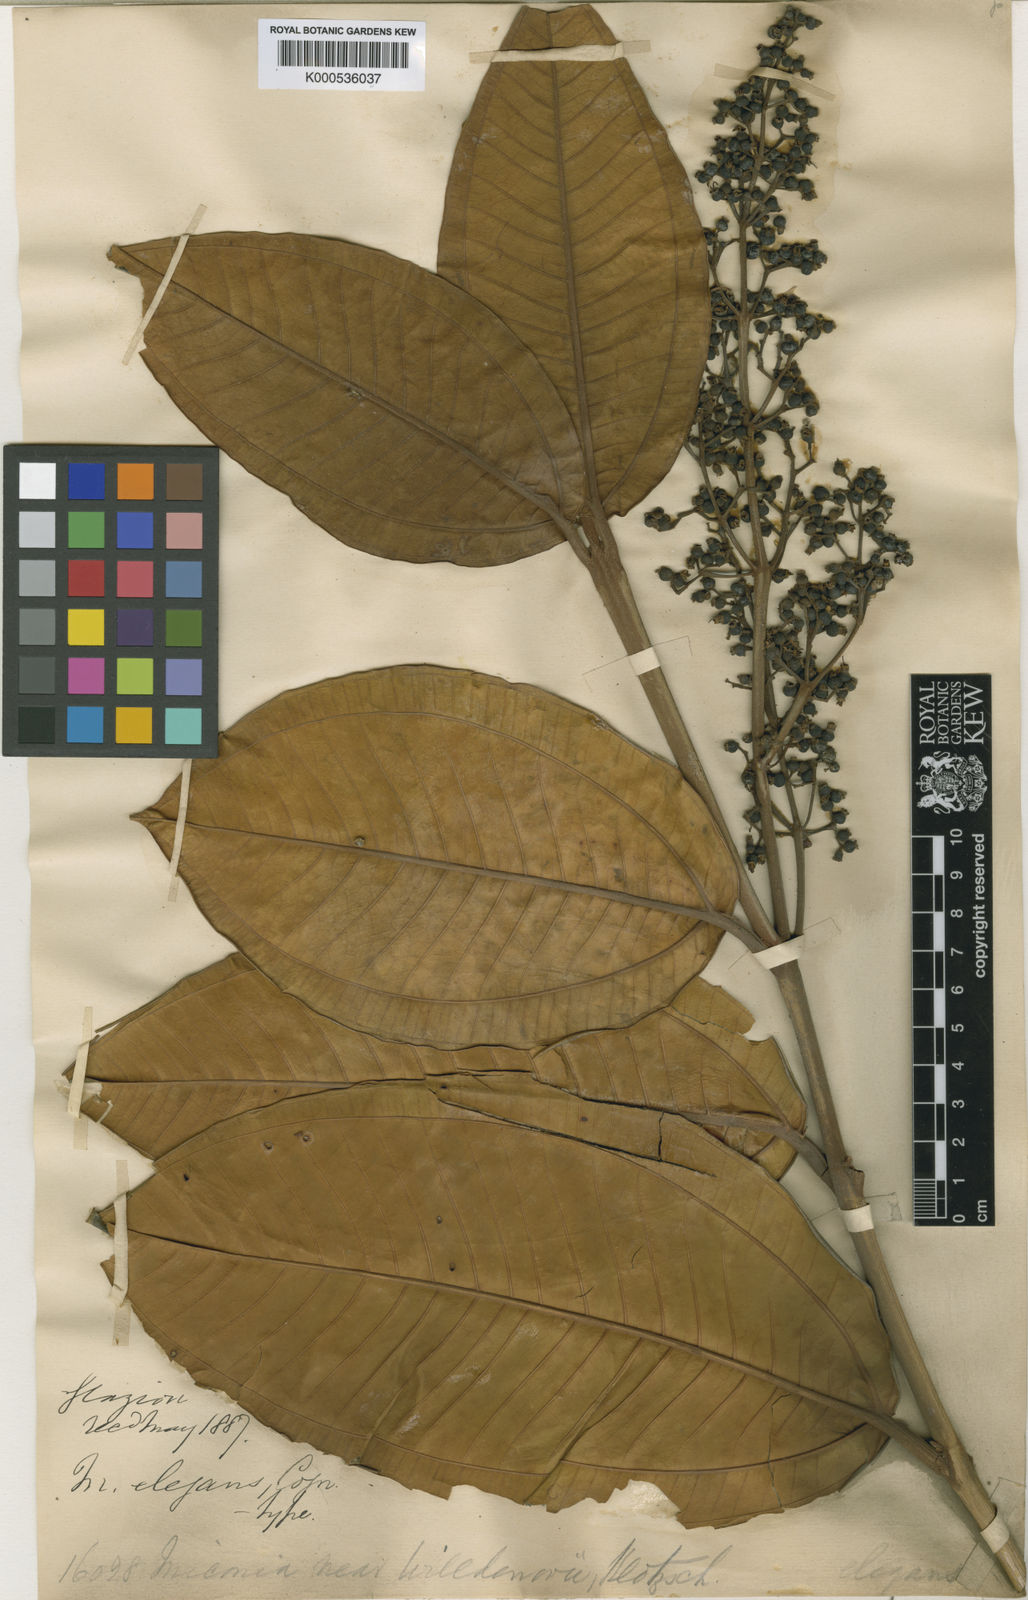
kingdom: Plantae
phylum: Tracheophyta
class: Magnoliopsida
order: Myrtales
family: Melastomataceae
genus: Miconia
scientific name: Miconia elegans
